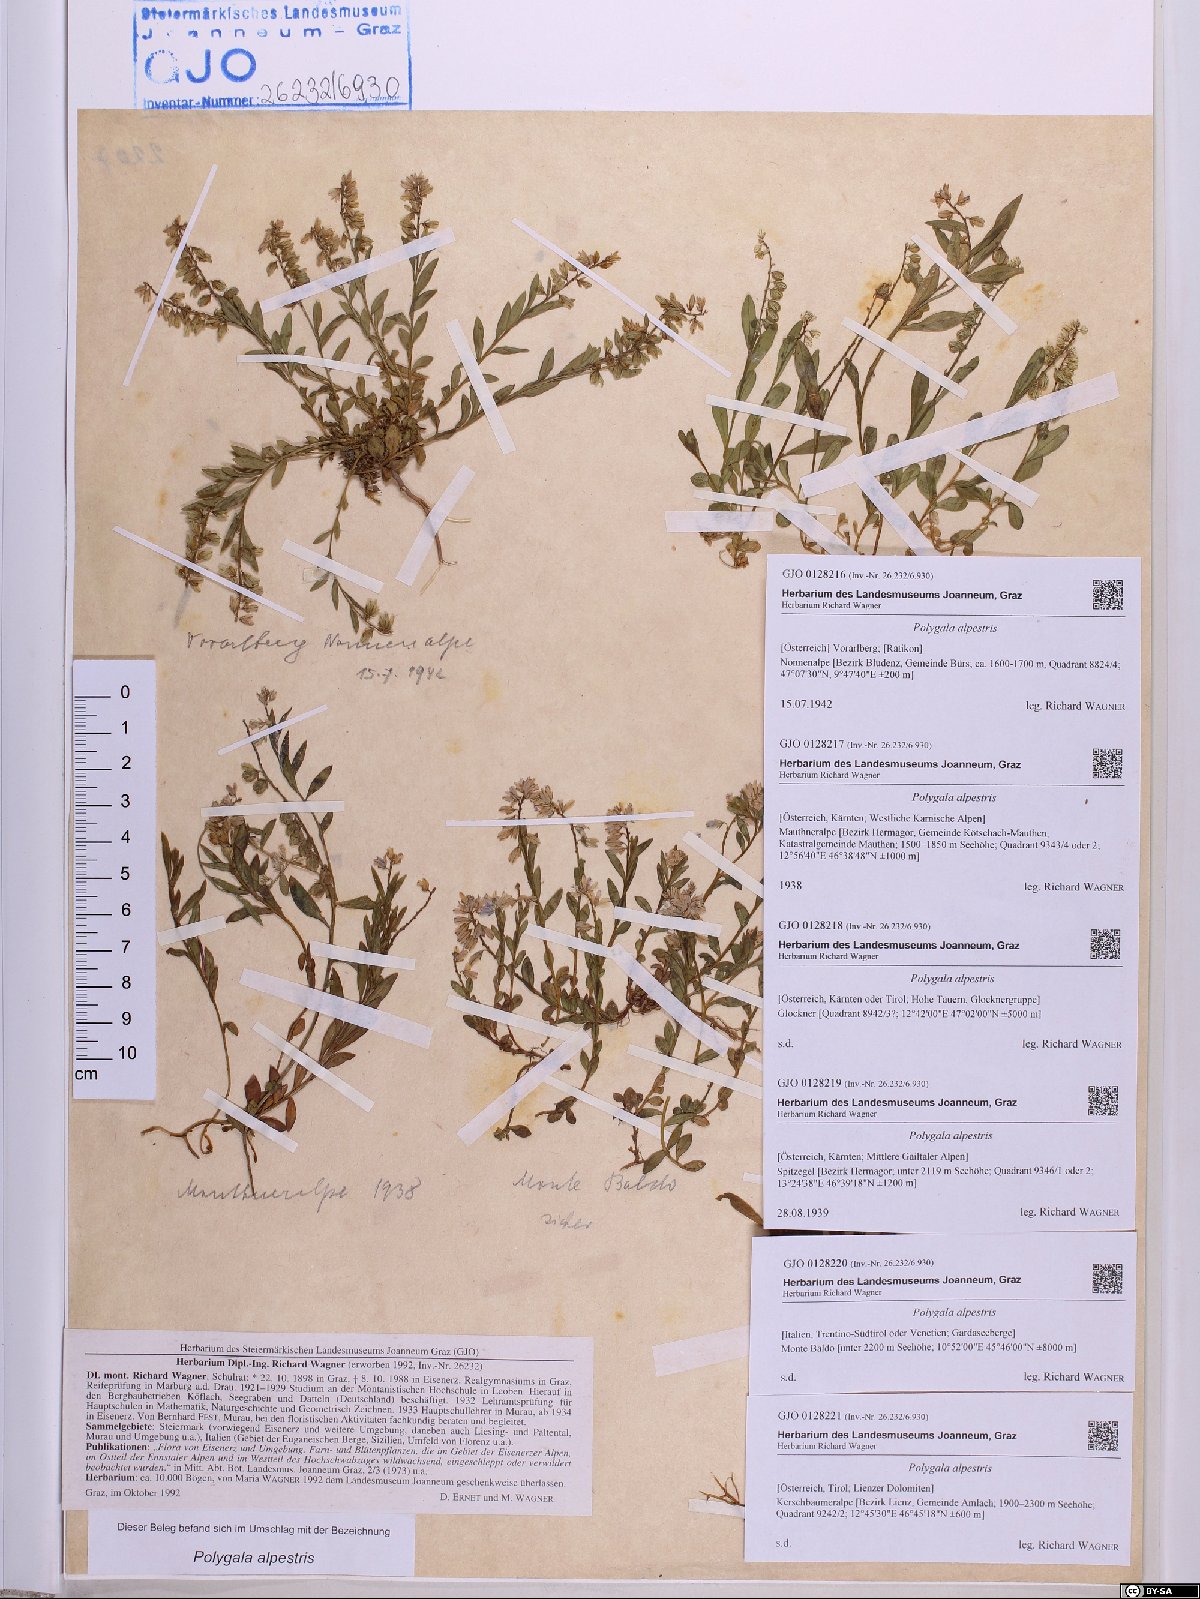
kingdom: Plantae
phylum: Tracheophyta
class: Magnoliopsida
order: Fabales
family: Polygalaceae
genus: Polygala
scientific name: Polygala alpestris
